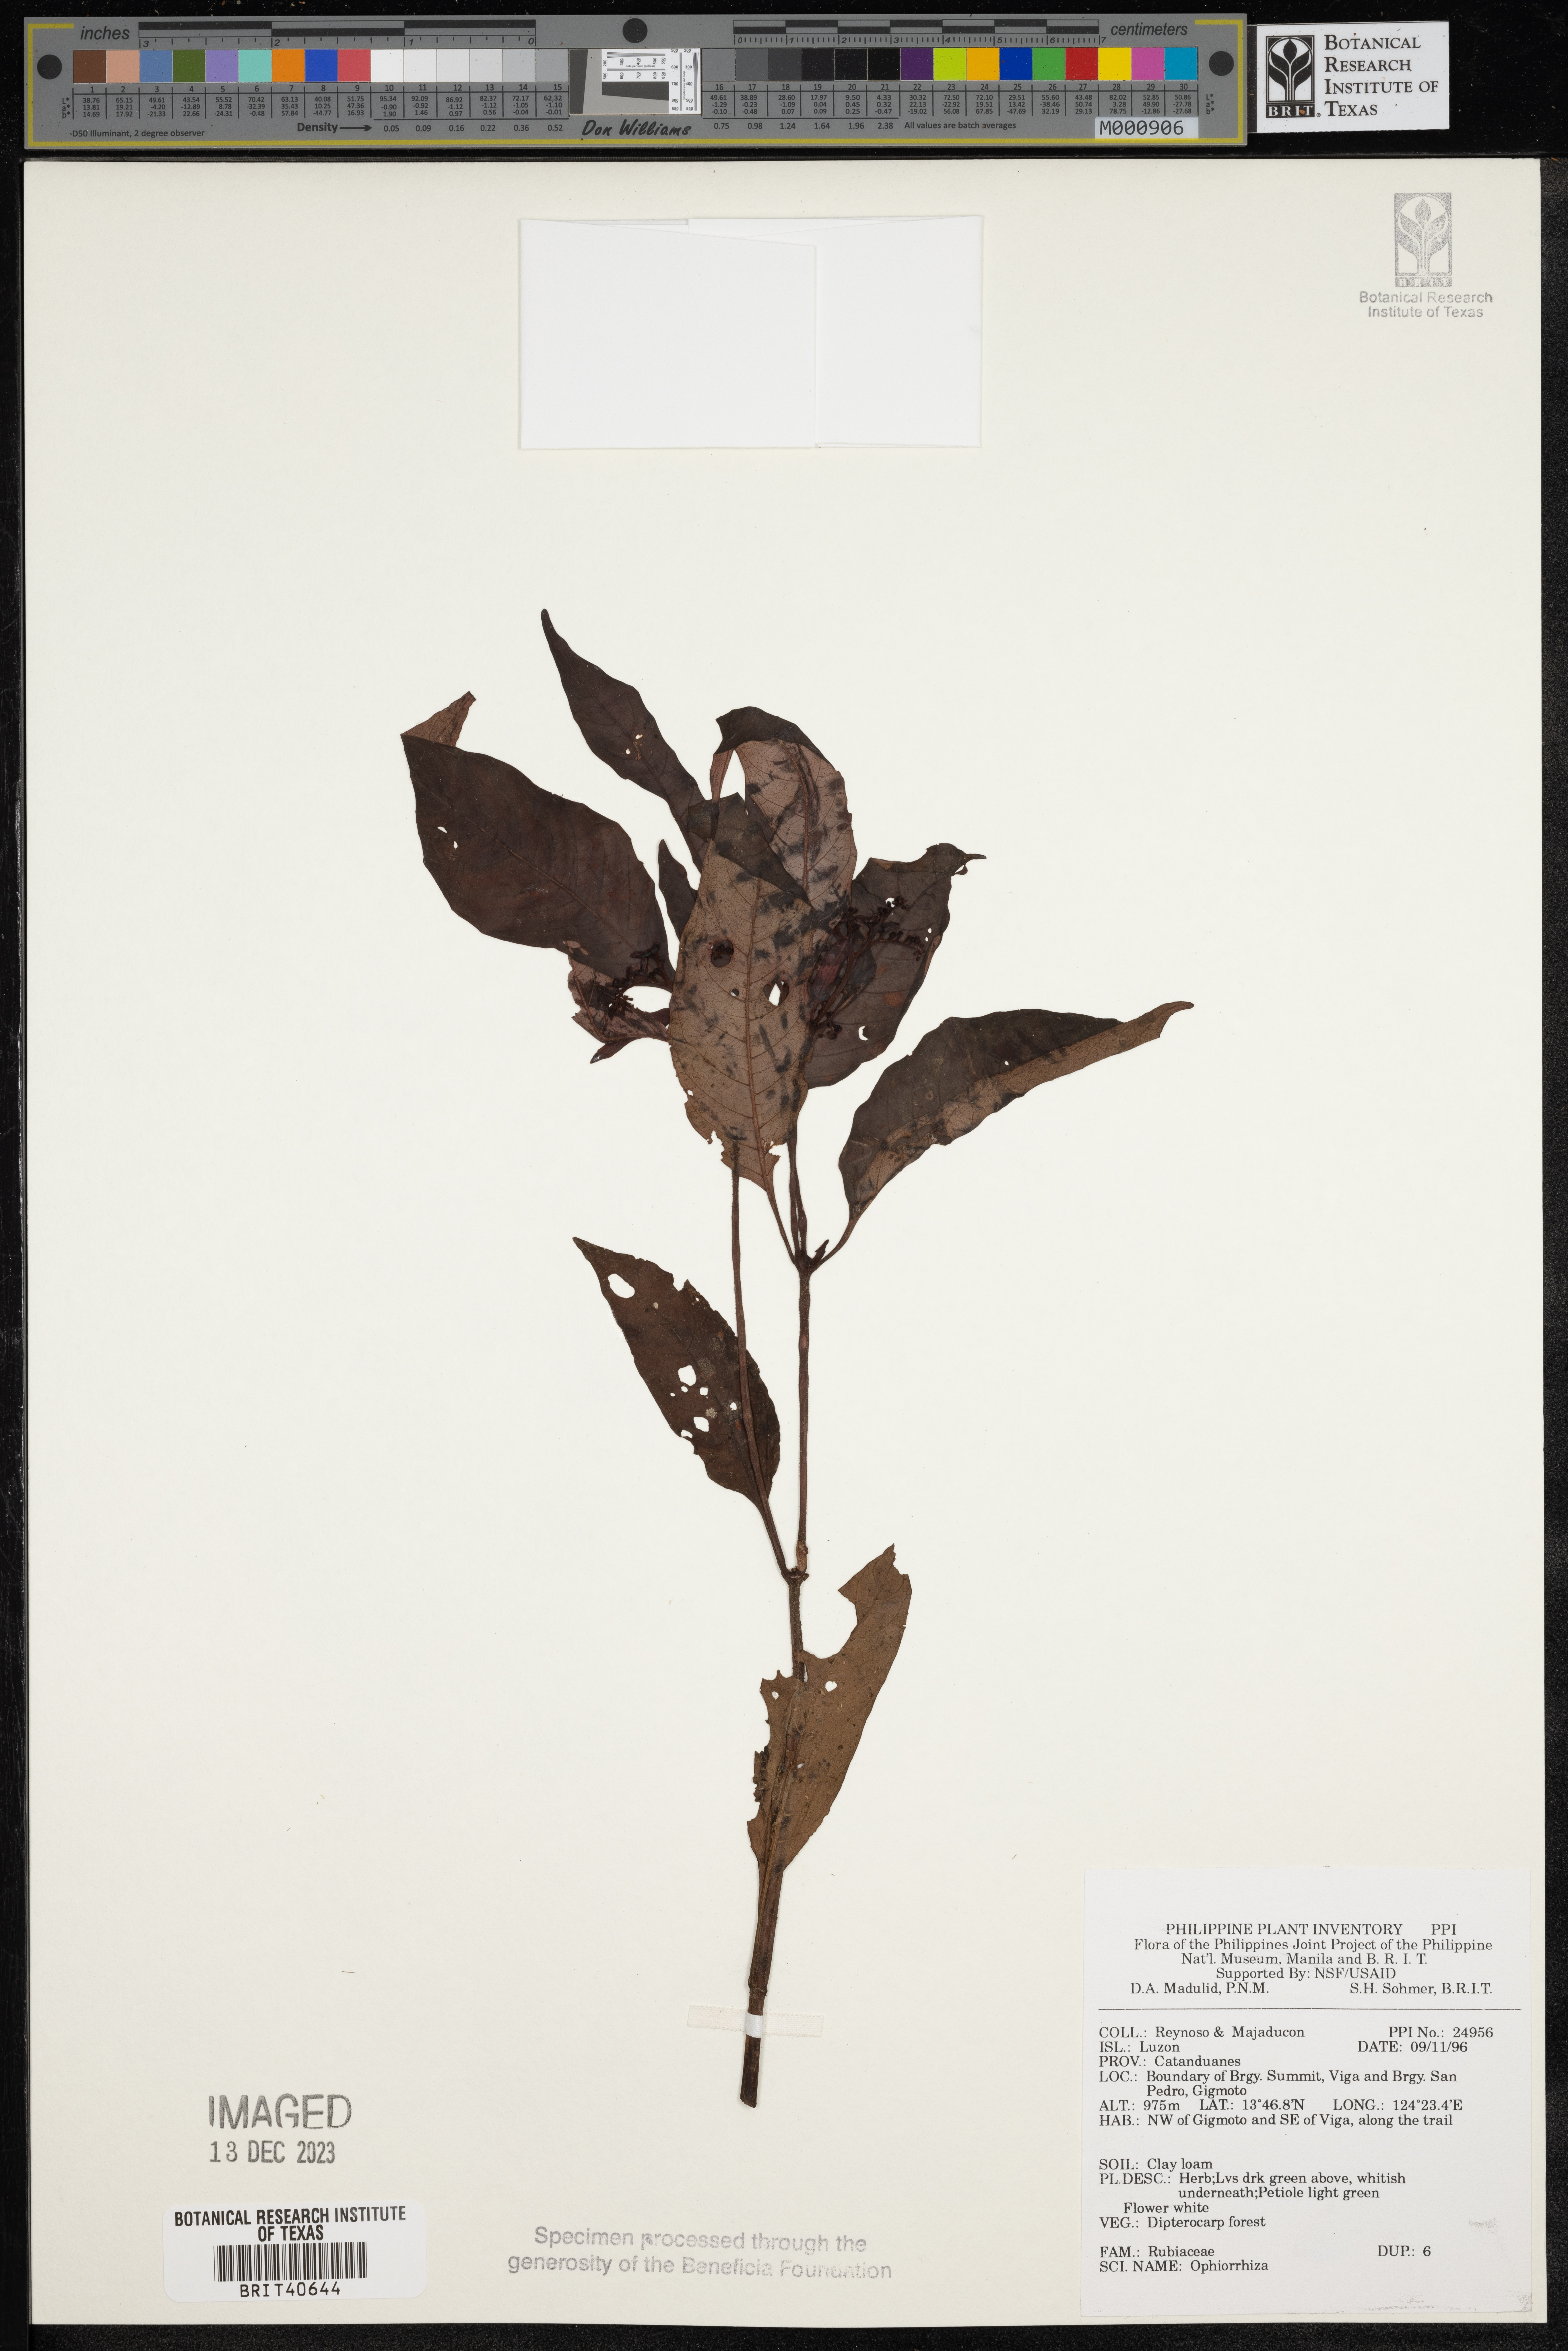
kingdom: Plantae
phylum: Tracheophyta
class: Magnoliopsida
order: Gentianales
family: Rubiaceae
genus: Ophiorrhiza
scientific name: Ophiorrhiza
